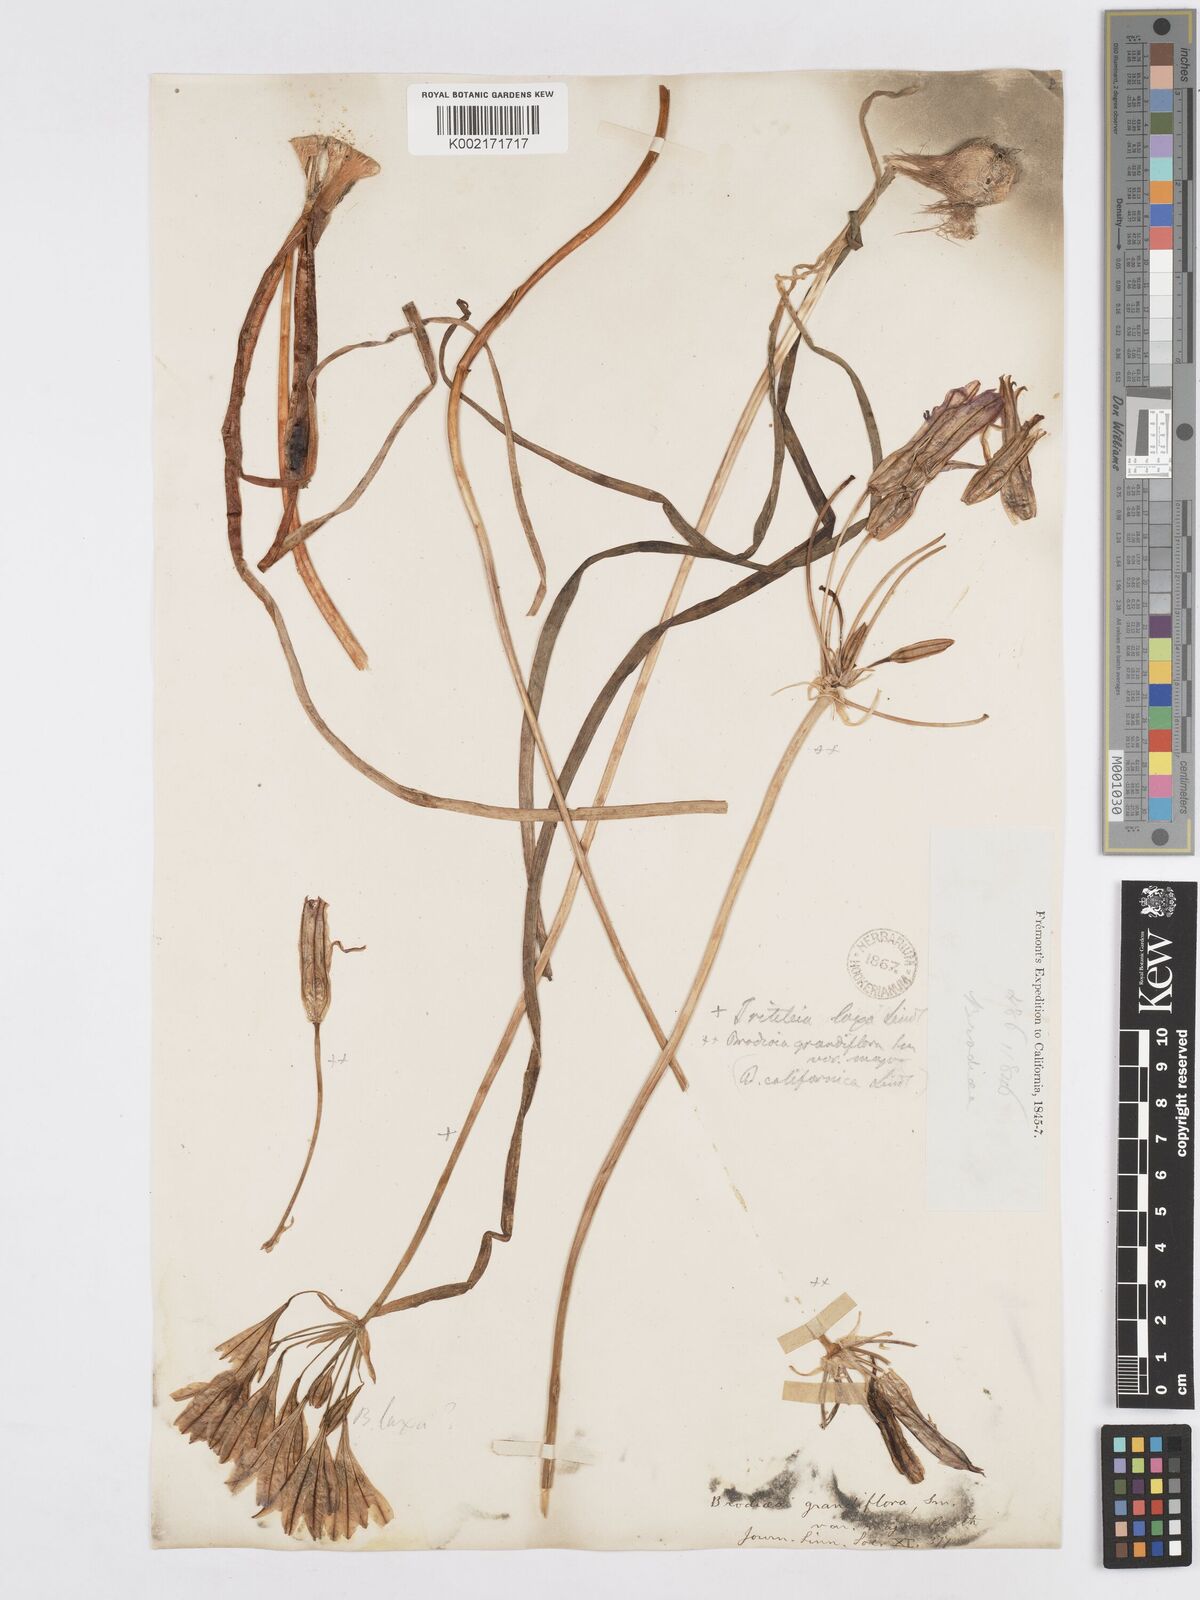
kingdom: Plantae
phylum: Tracheophyta
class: Liliopsida
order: Asparagales
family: Asparagaceae
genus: Triteleia
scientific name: Triteleia laxa
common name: Triplet-lily
